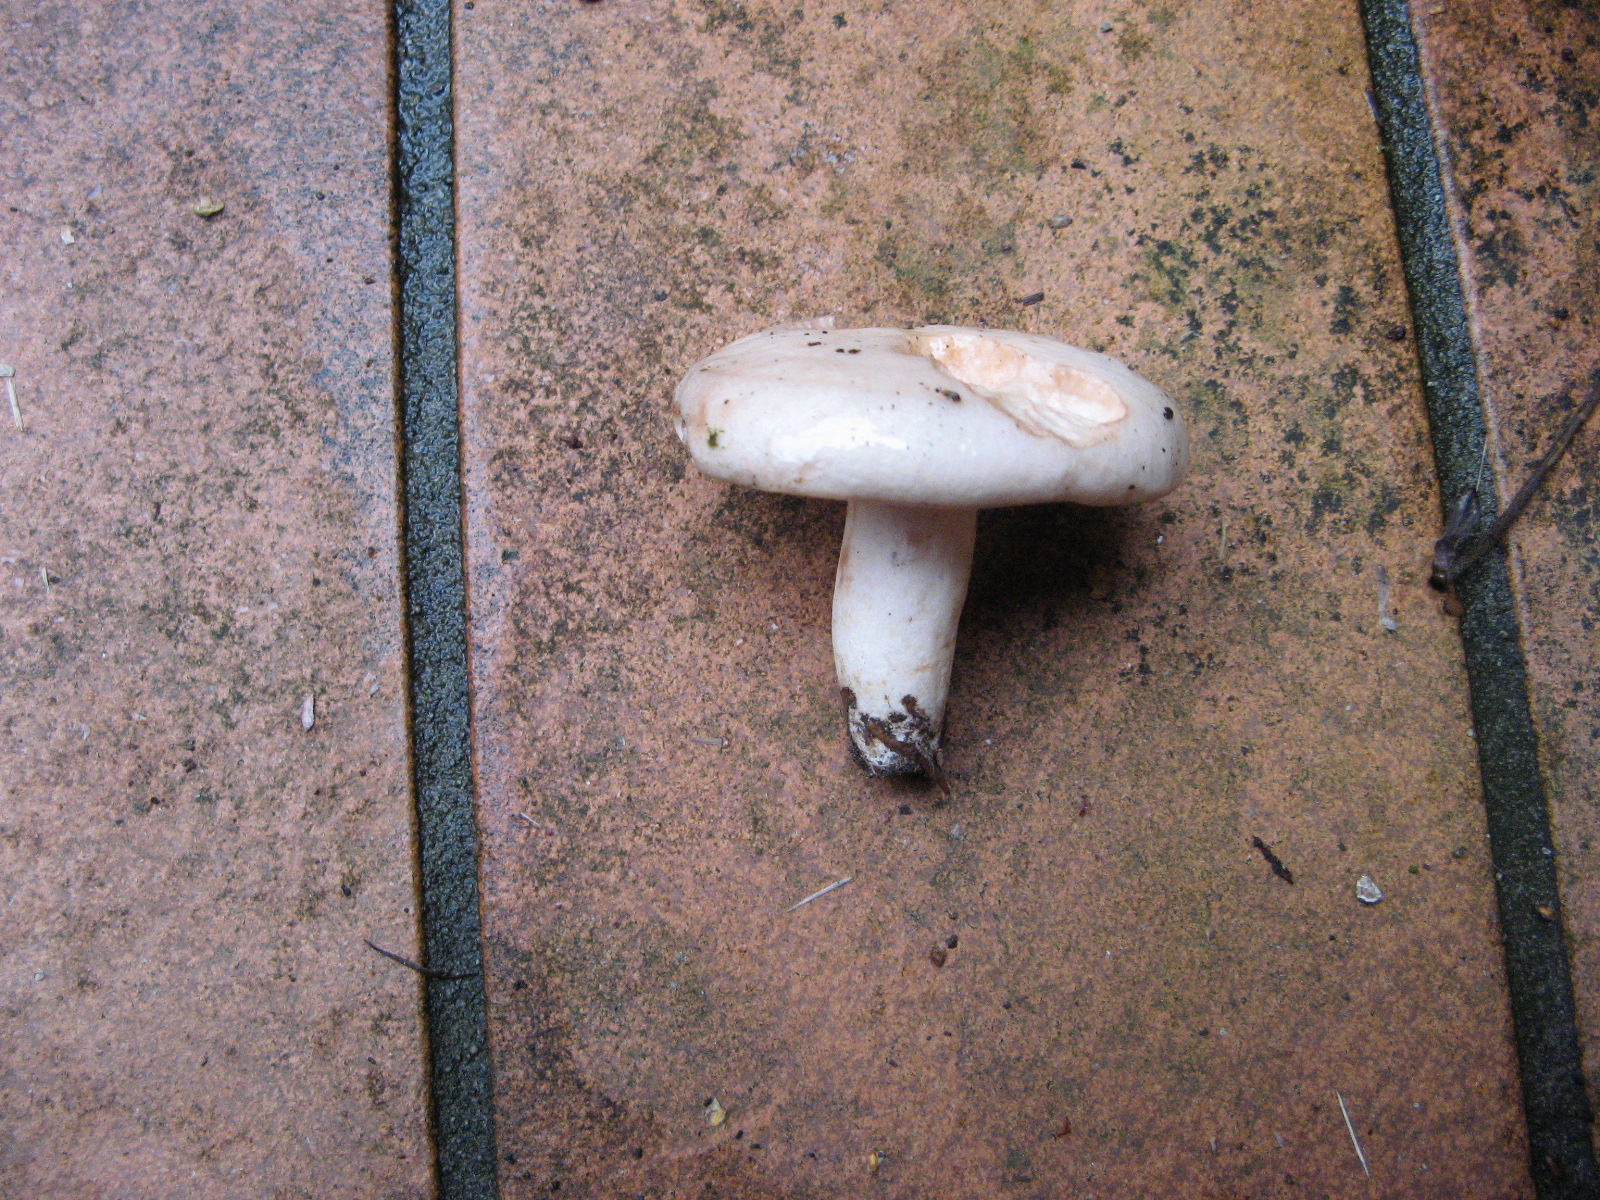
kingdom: Fungi
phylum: Basidiomycota
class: Agaricomycetes
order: Russulales
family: Russulaceae
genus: Lactarius
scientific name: Lactarius pallidus
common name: bleg mælkehat
